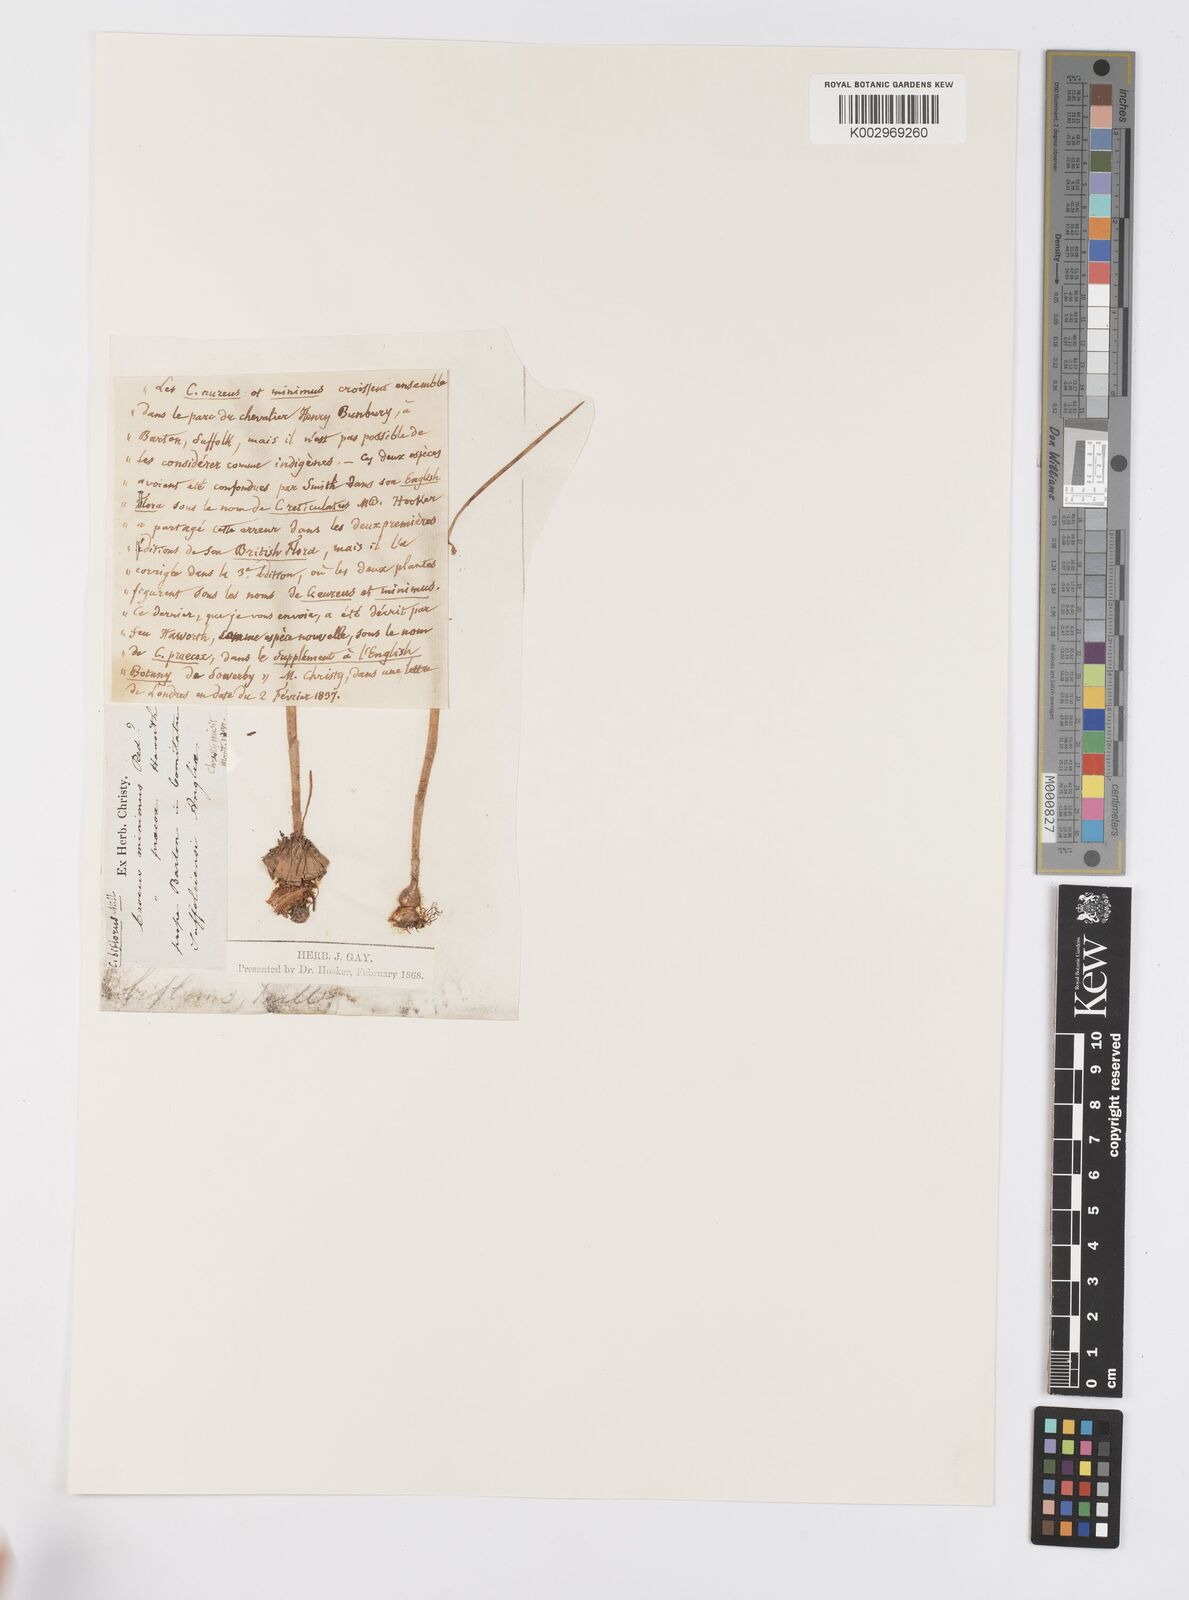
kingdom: Plantae
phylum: Tracheophyta
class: Liliopsida
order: Asparagales
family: Iridaceae
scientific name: Iridaceae
